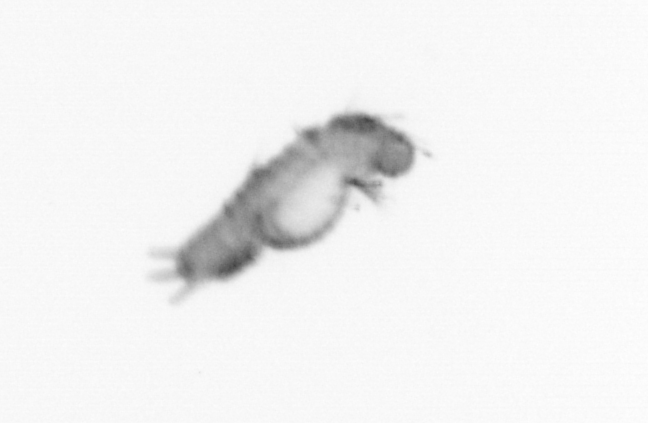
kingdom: Animalia
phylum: Annelida
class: Polychaeta
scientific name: Polychaeta
